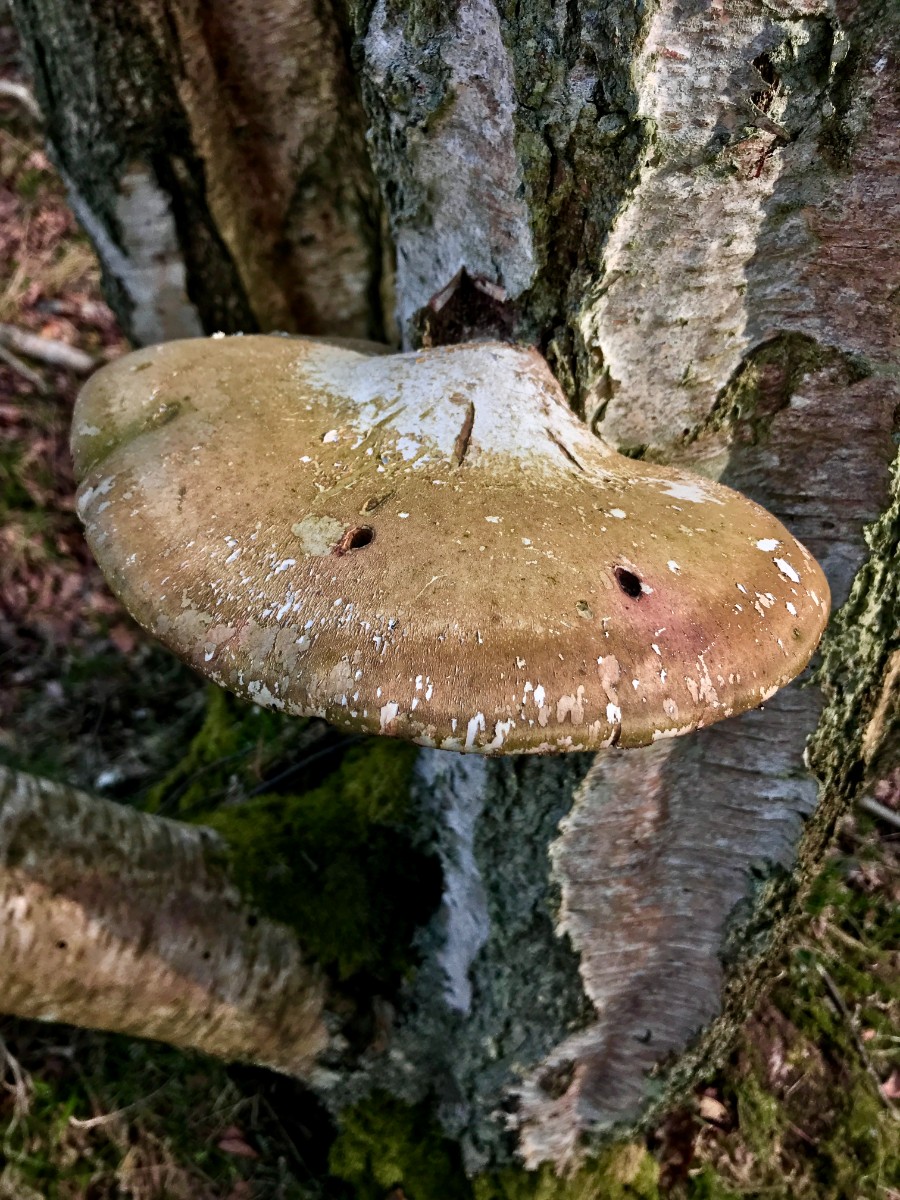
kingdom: Fungi
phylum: Basidiomycota
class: Agaricomycetes
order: Polyporales
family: Fomitopsidaceae
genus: Fomitopsis
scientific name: Fomitopsis betulina
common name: birkeporesvamp
